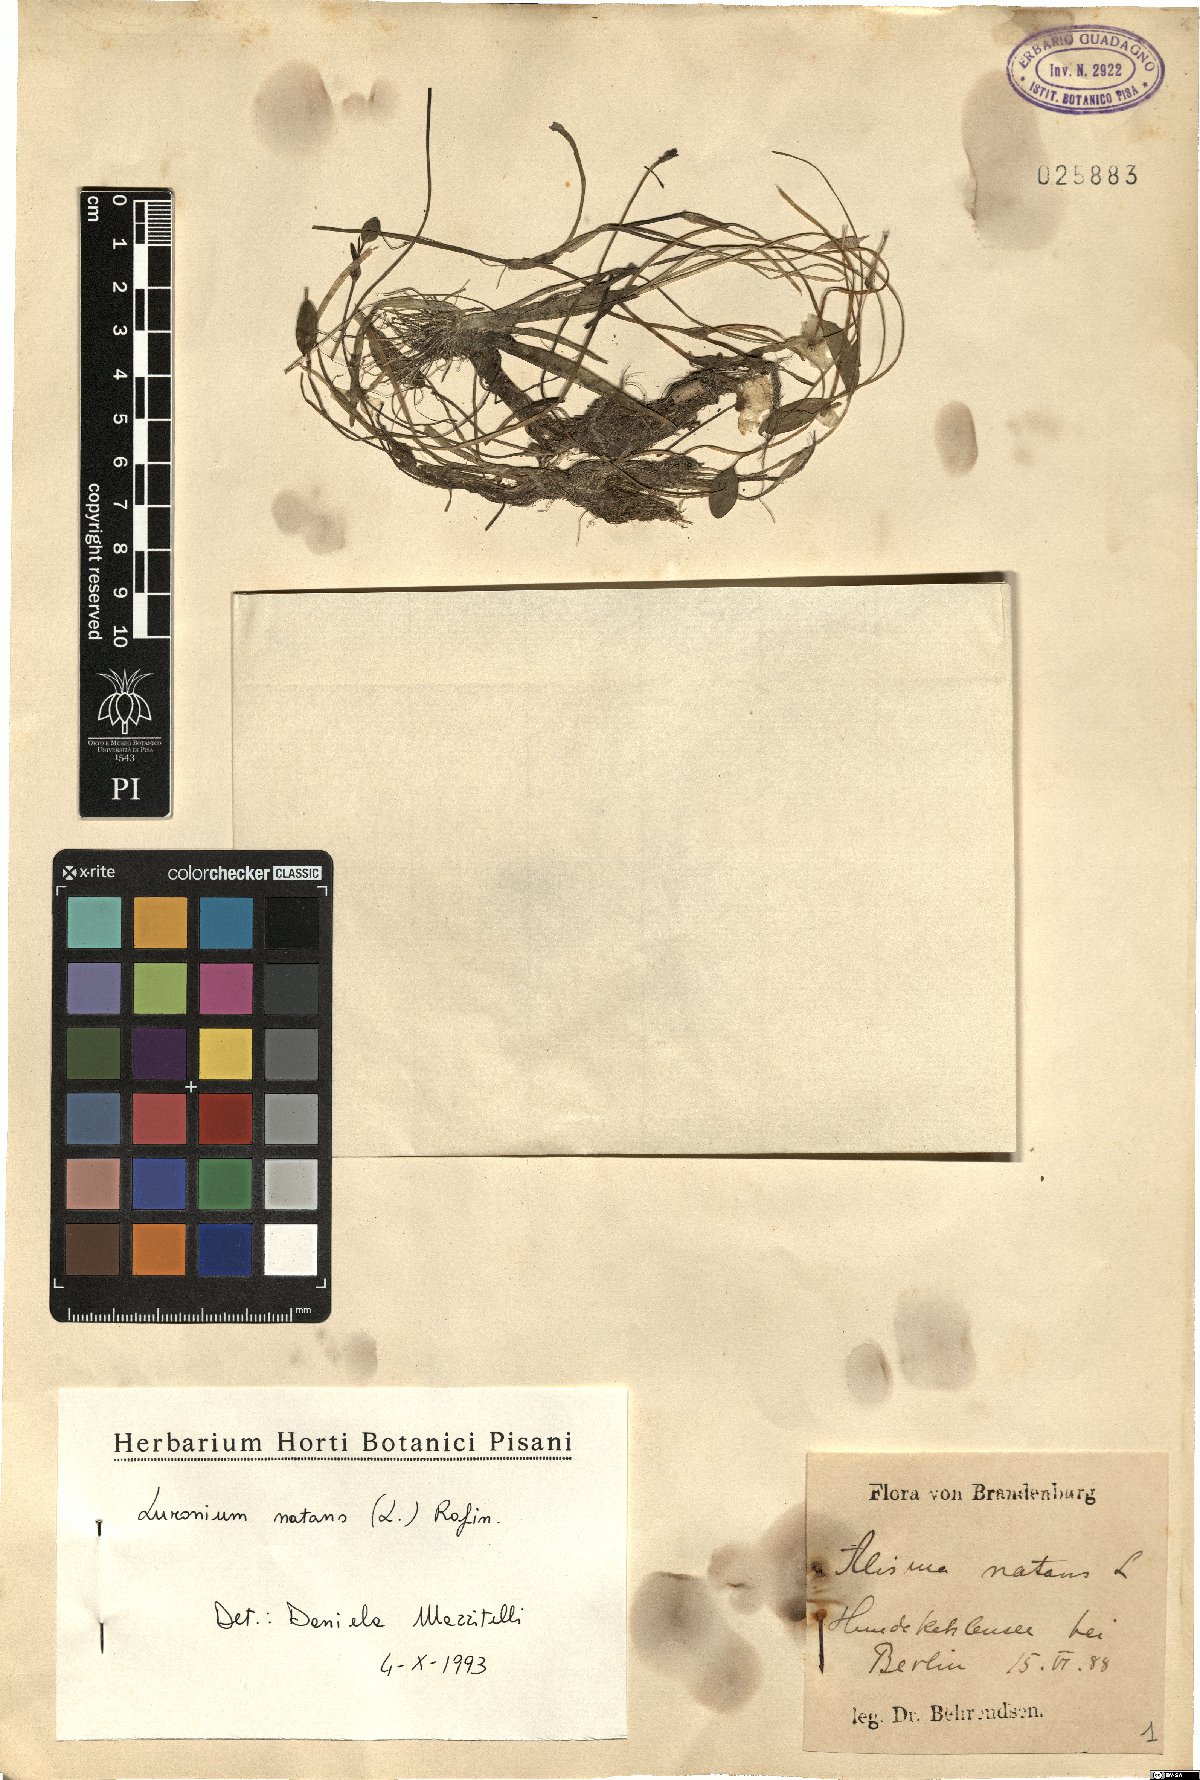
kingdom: Plantae
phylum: Tracheophyta
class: Liliopsida
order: Alismatales
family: Alismataceae
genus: Luronium
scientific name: Luronium natans
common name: Floating water-plantain
